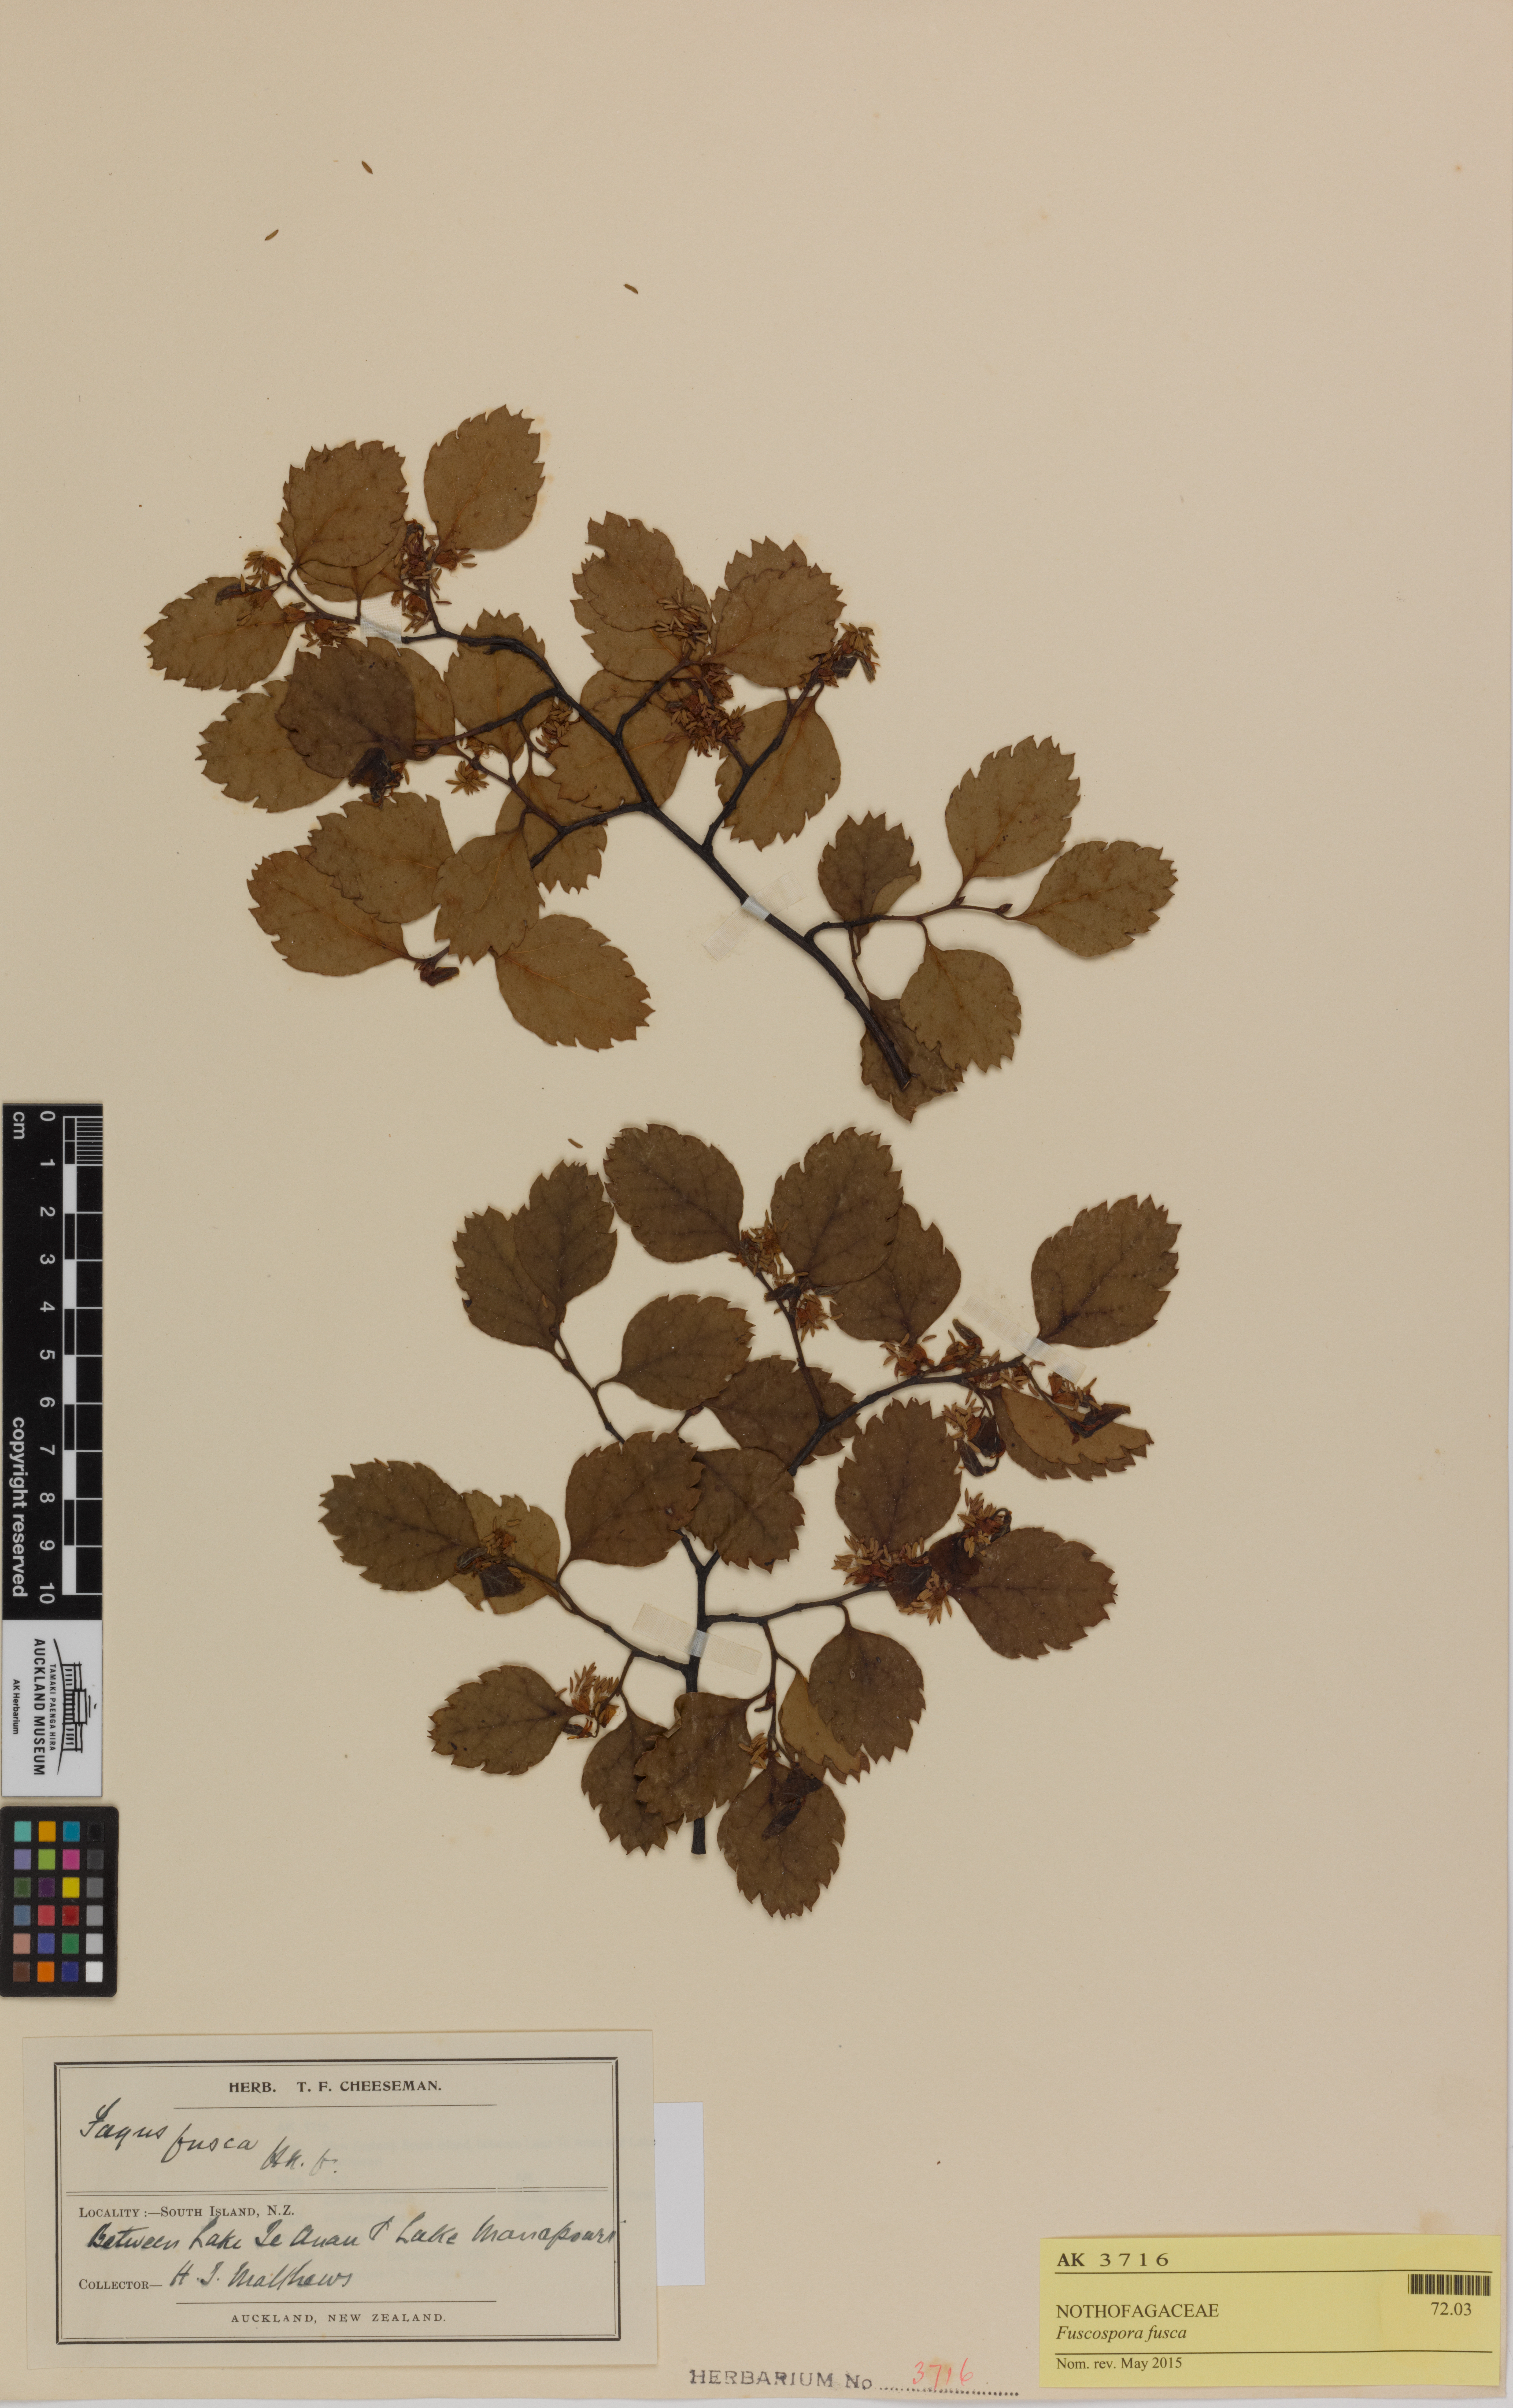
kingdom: Plantae
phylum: Tracheophyta
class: Magnoliopsida
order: Fagales
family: Nothofagaceae
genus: Nothofagus
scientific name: Nothofagus fusca
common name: Red beech
